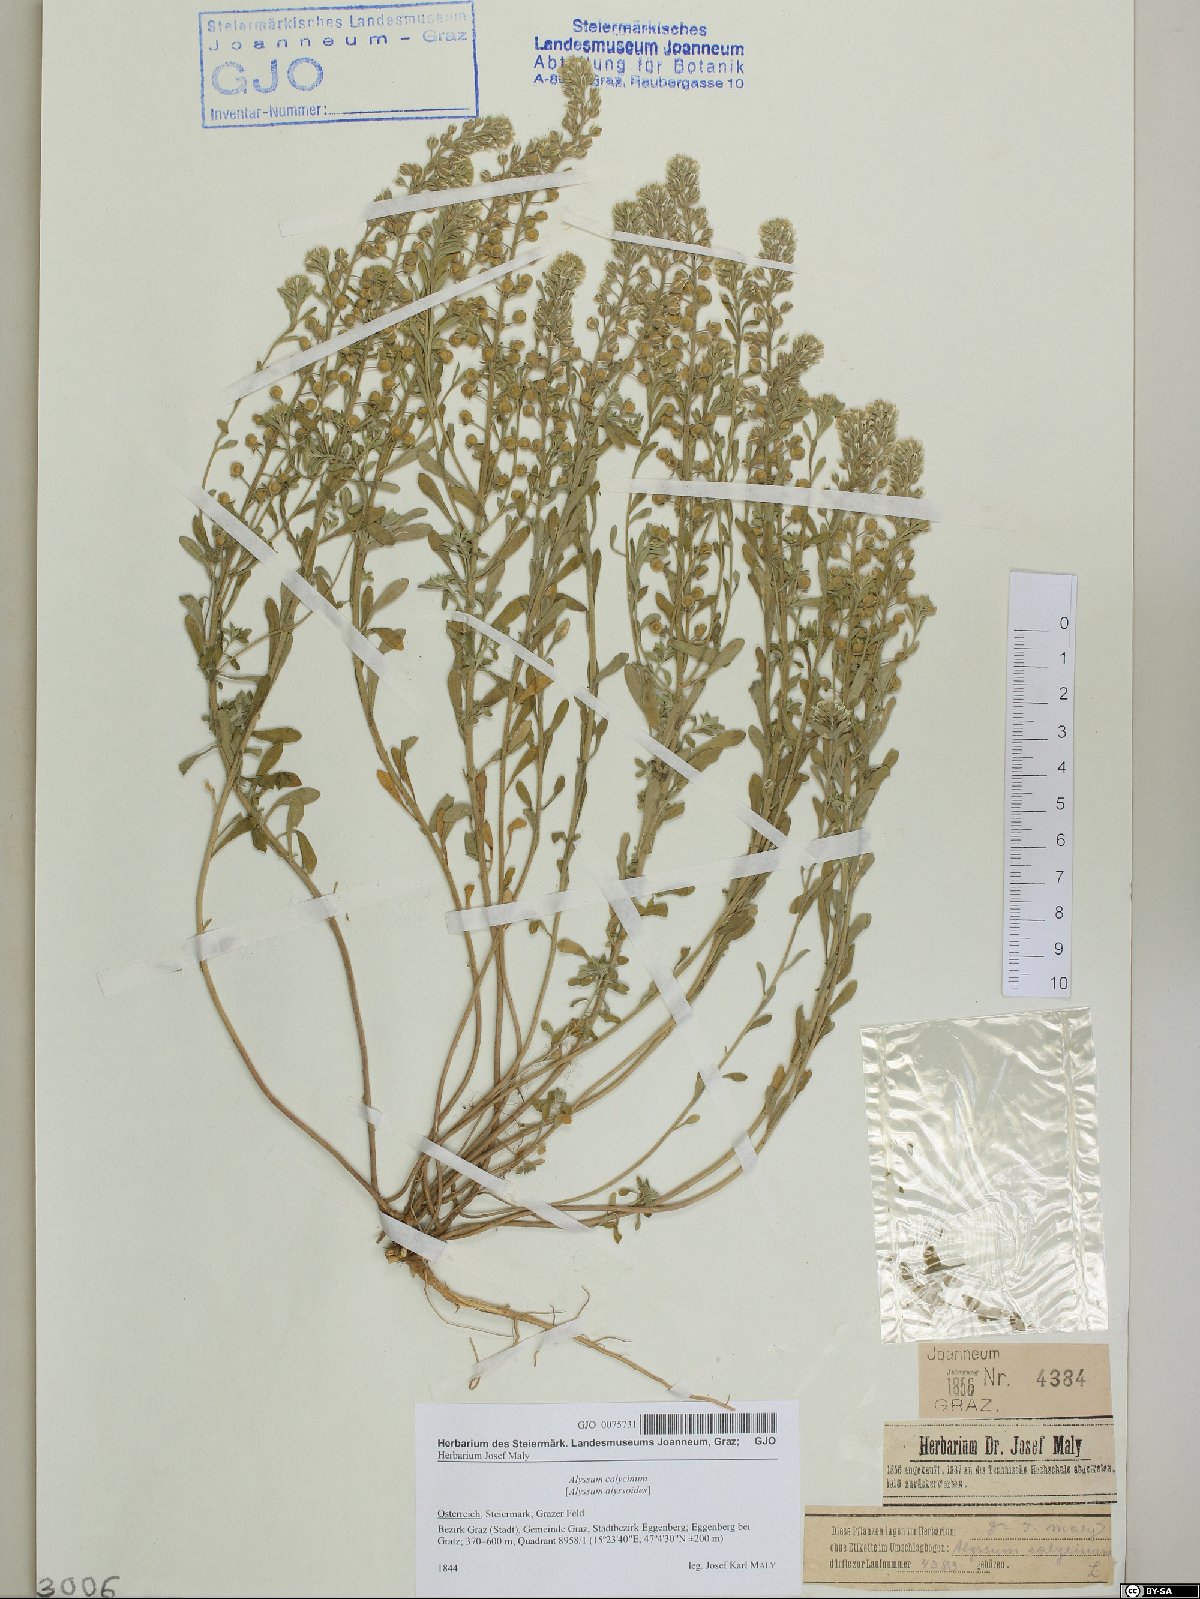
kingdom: Plantae
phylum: Tracheophyta
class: Magnoliopsida
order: Brassicales
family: Brassicaceae
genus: Alyssum
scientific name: Alyssum alyssoides
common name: Small alison
